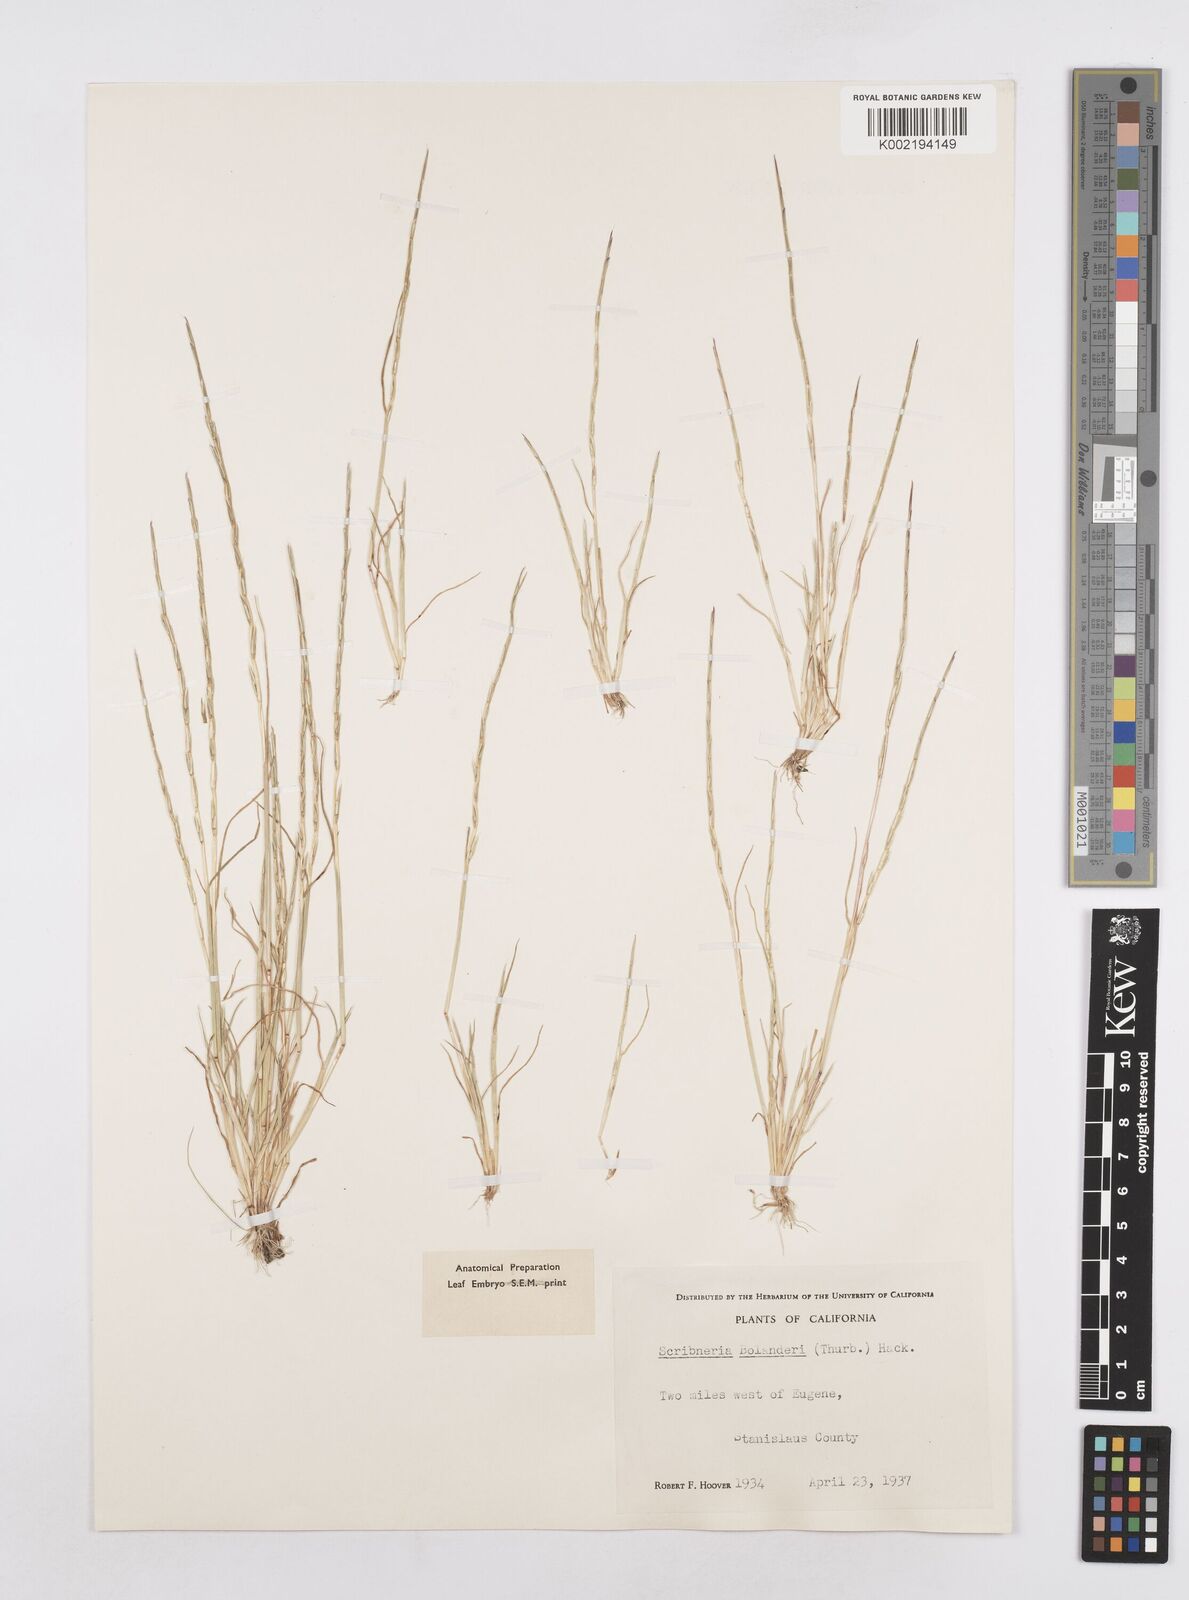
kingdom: Plantae
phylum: Tracheophyta
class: Liliopsida
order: Poales
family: Poaceae
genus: Deschampsia
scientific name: Deschampsia bolanderi
